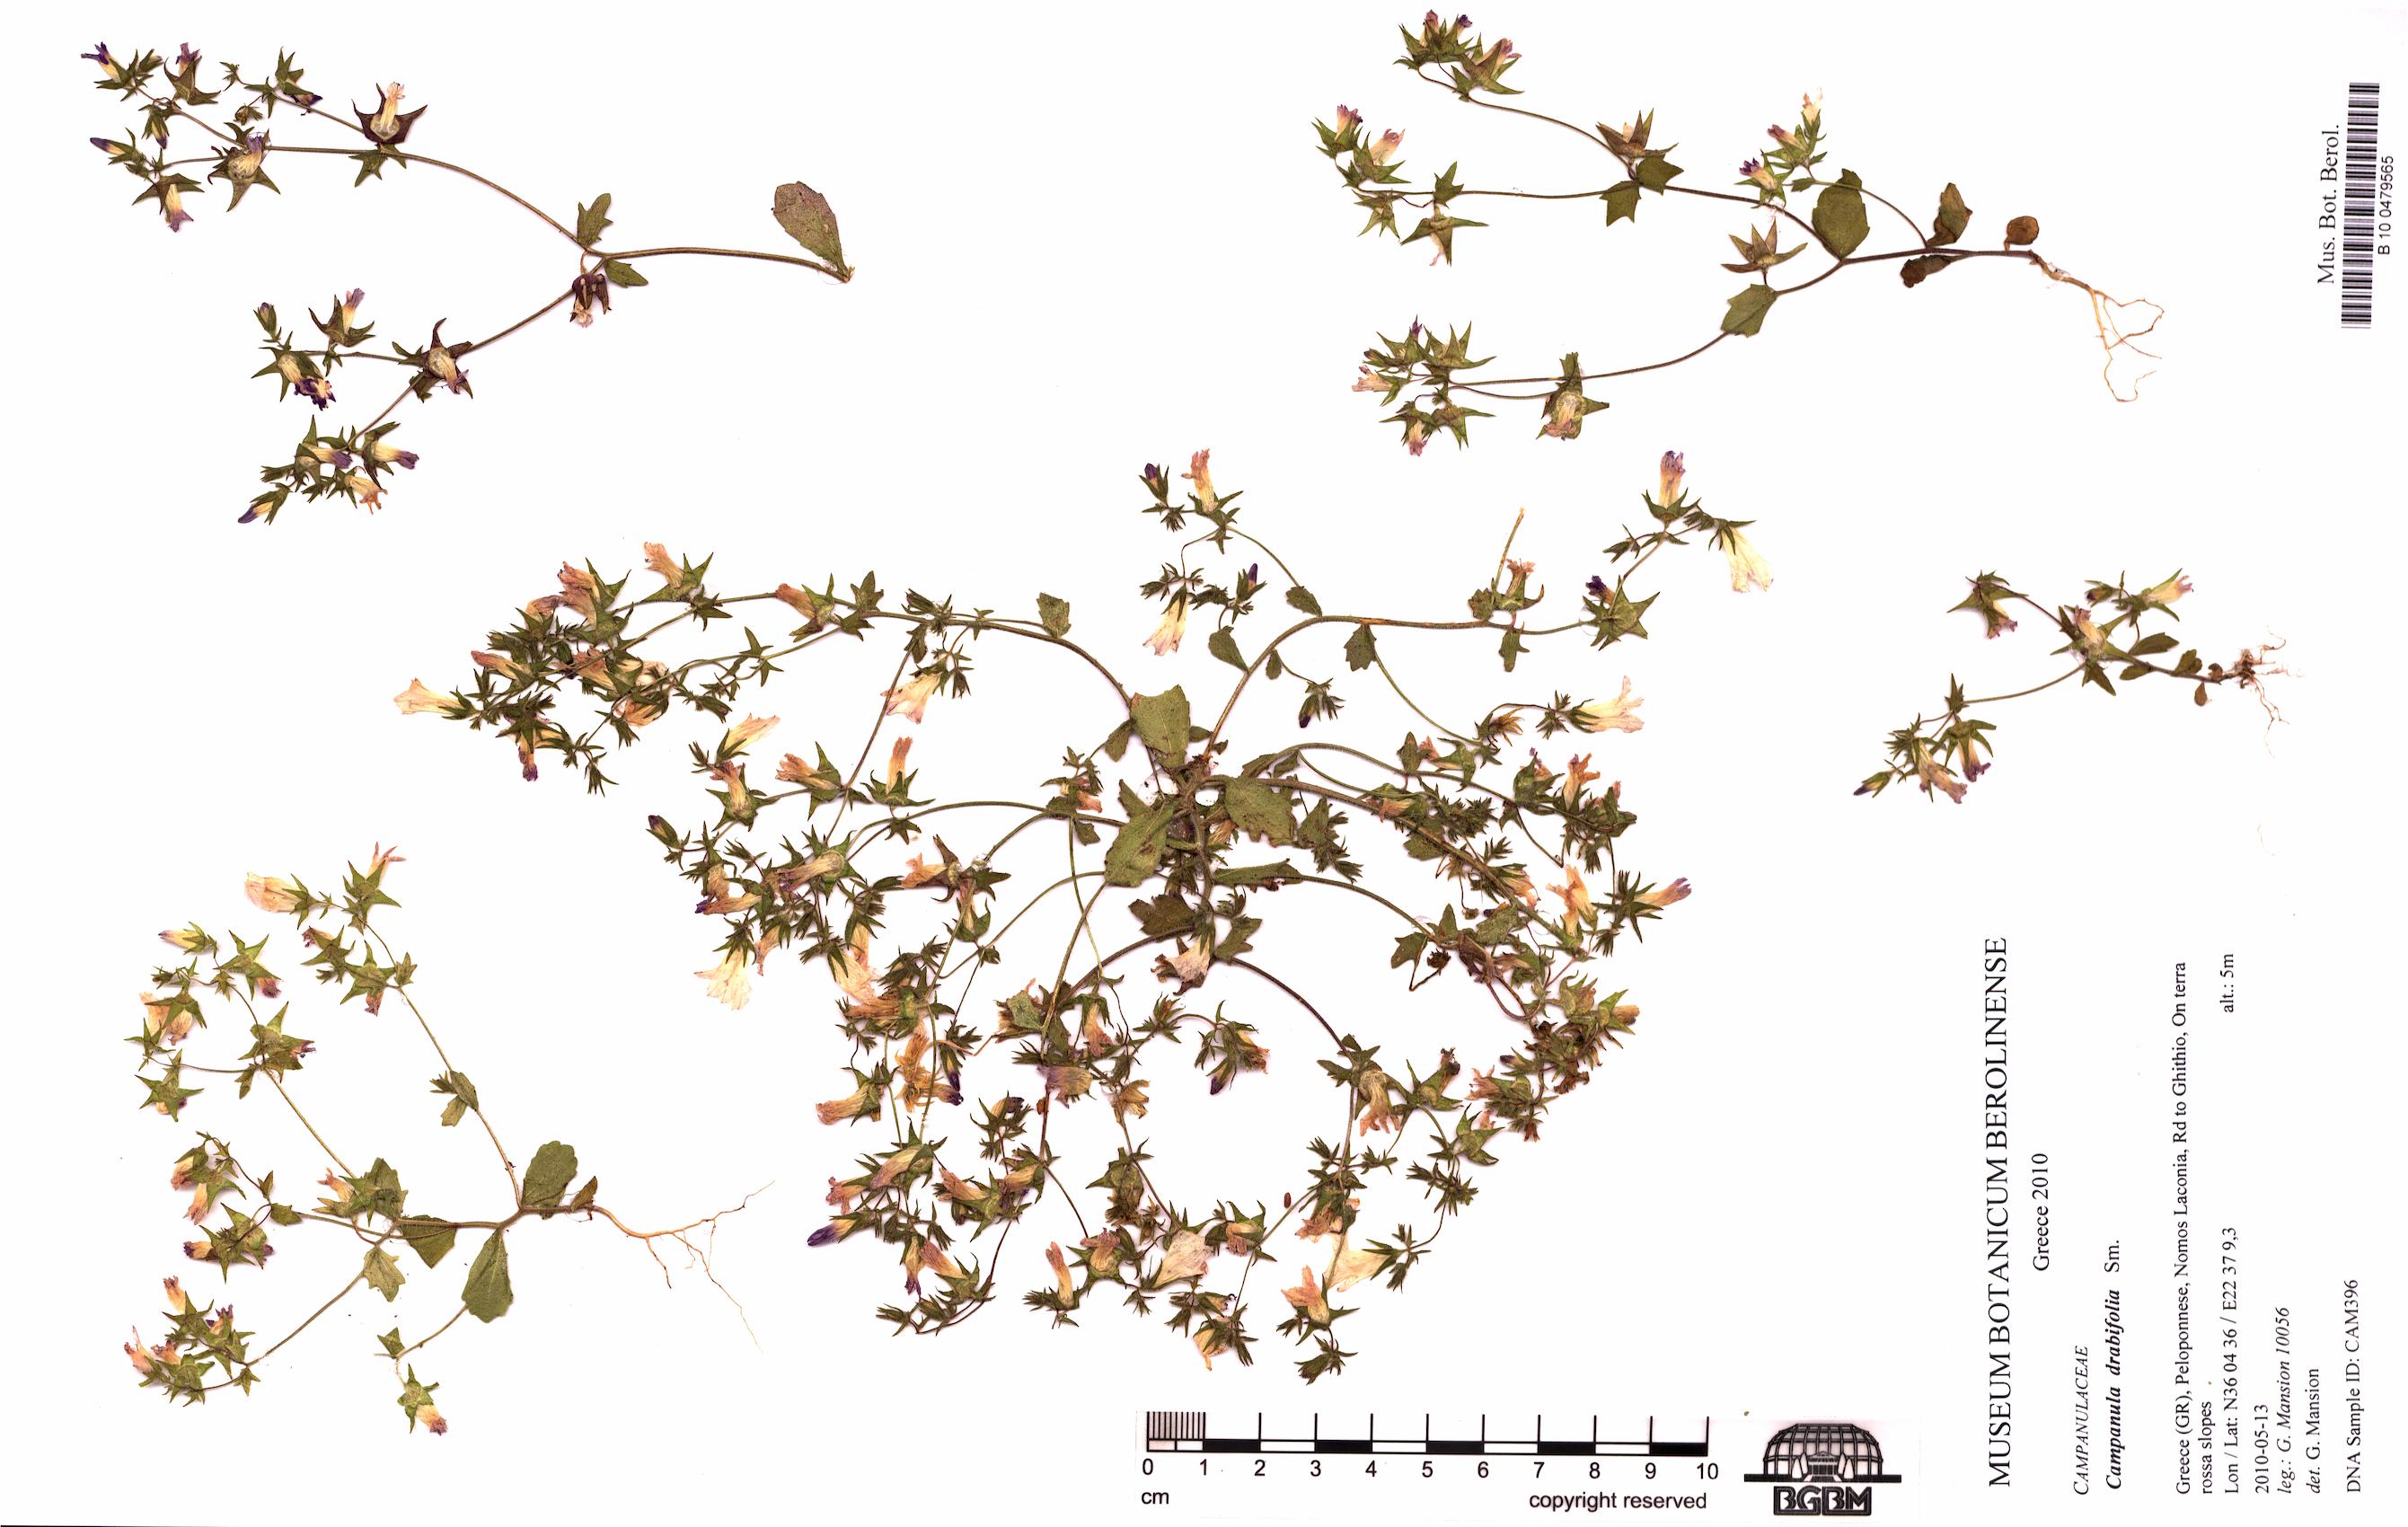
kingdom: Plantae
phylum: Tracheophyta
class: Magnoliopsida
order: Asterales
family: Campanulaceae
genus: Campanula
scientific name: Campanula drabifolia
